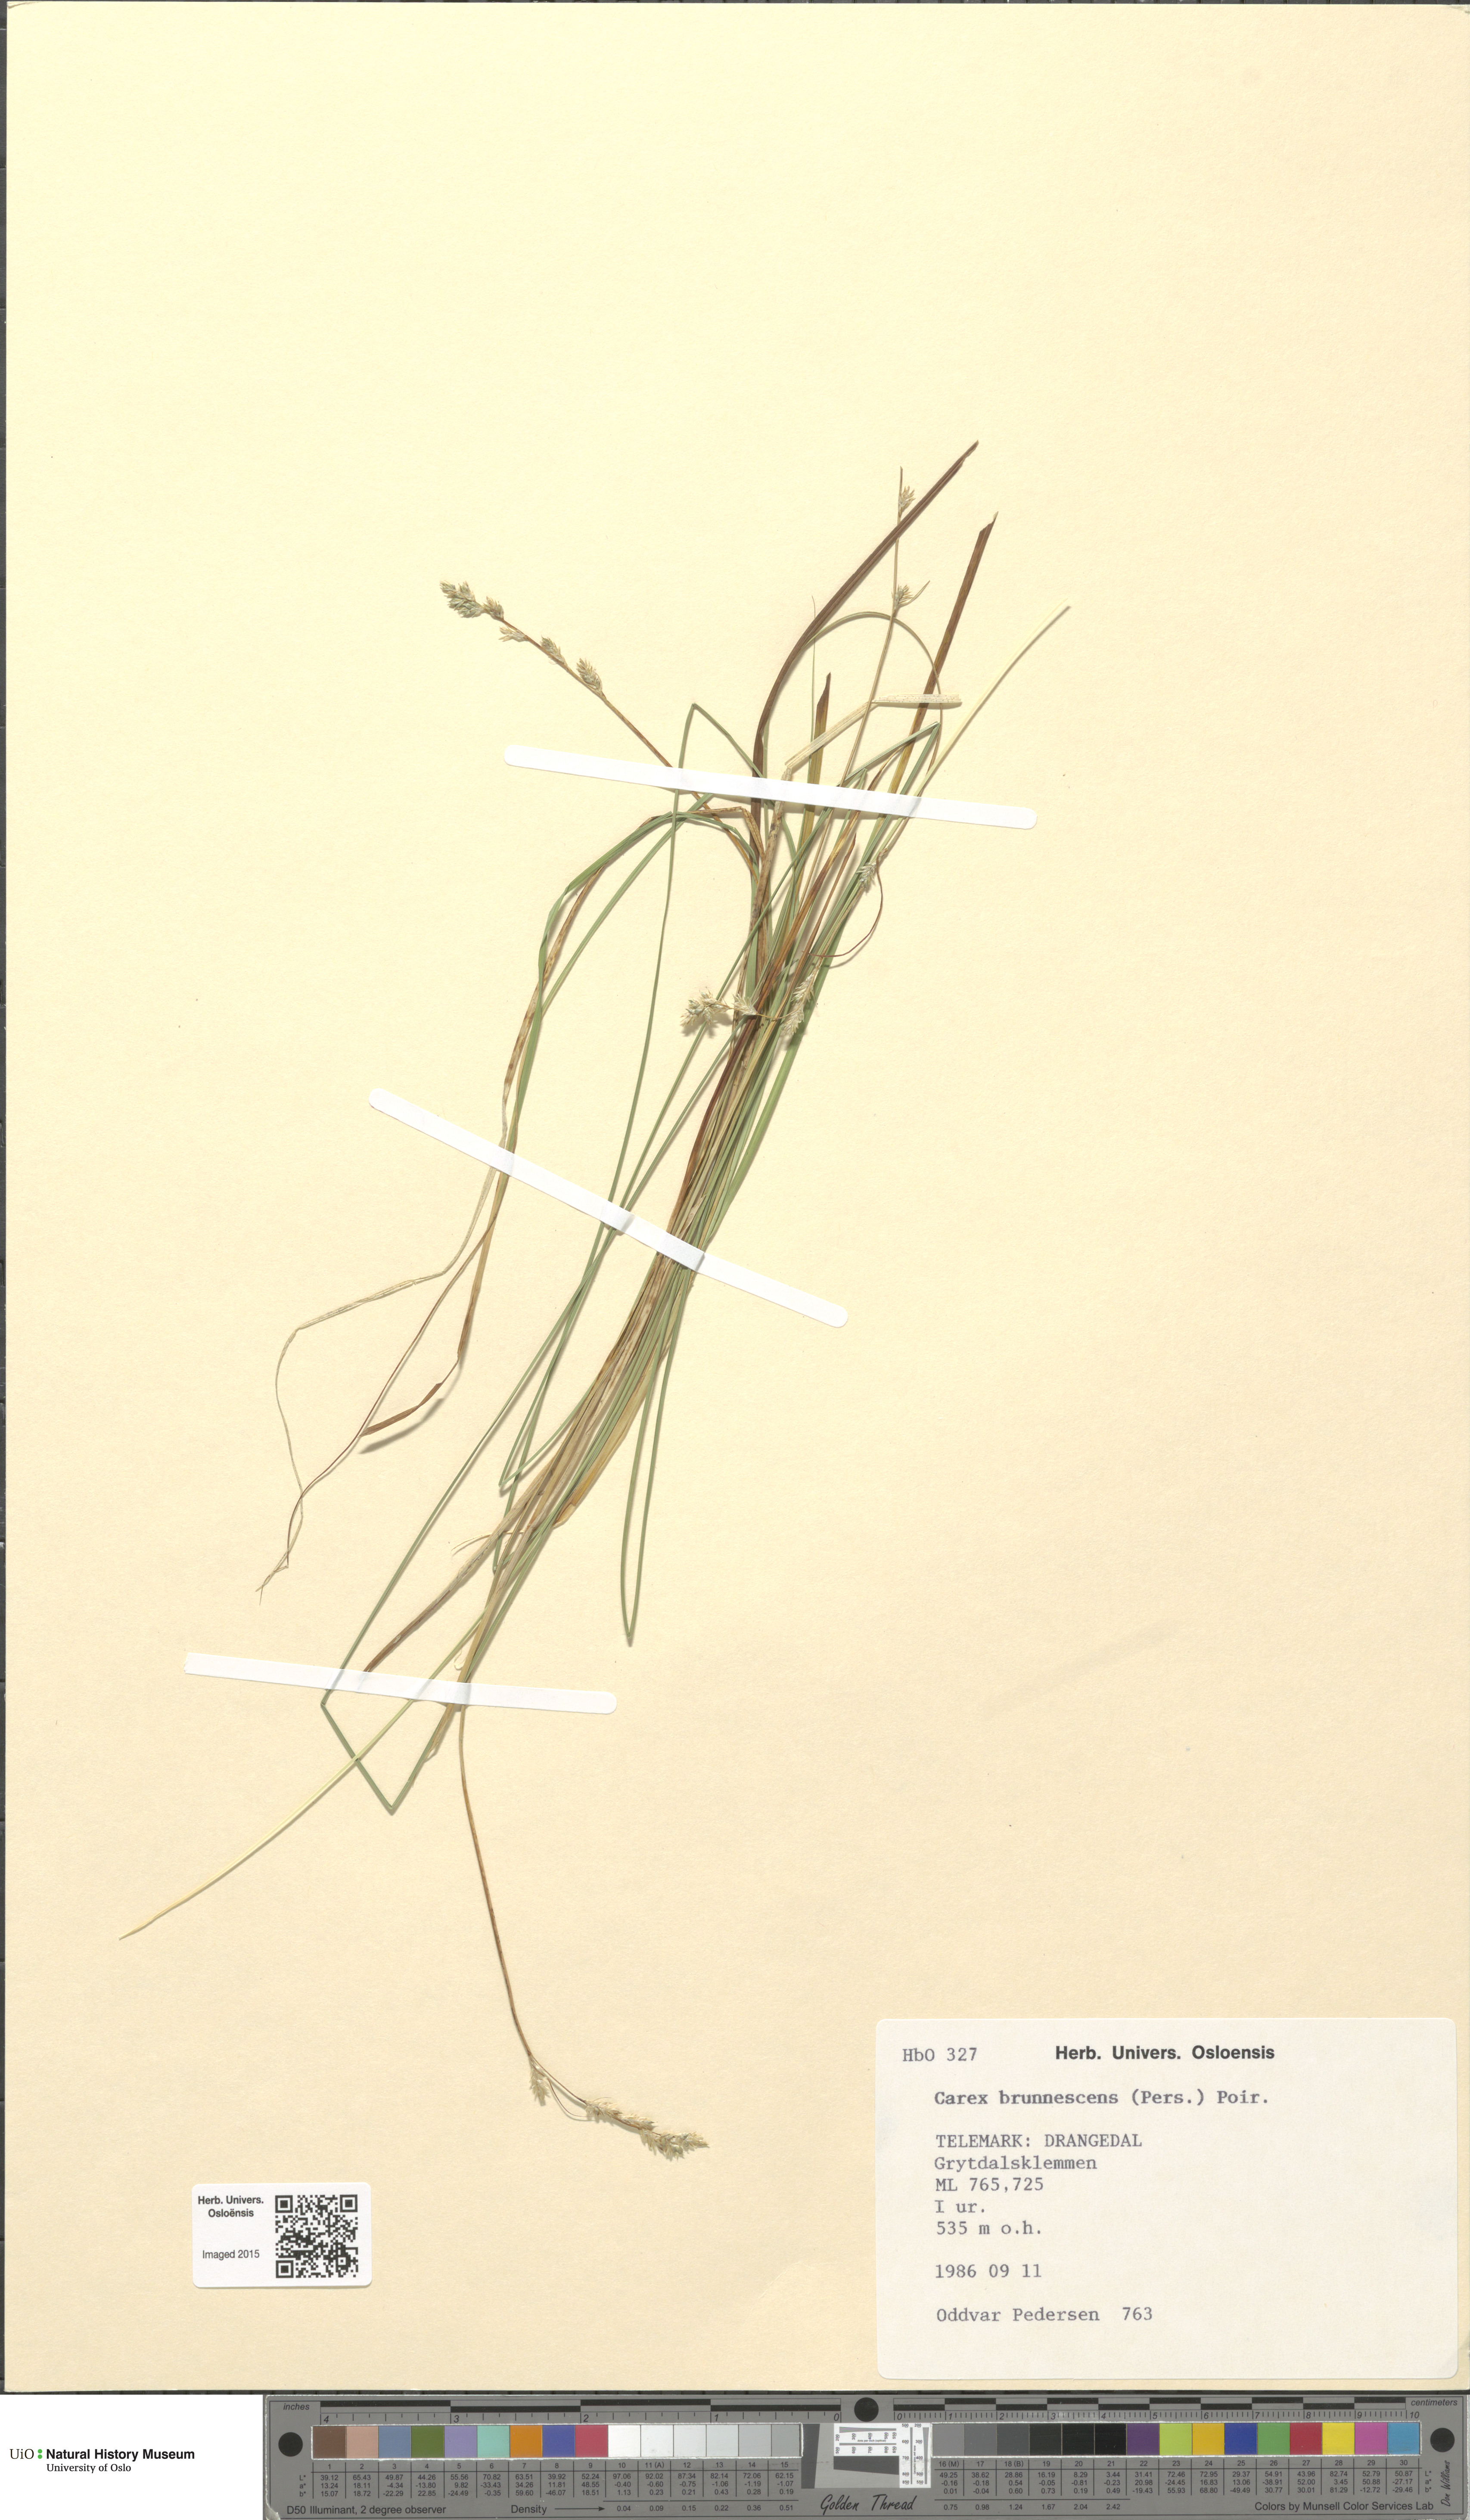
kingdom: Plantae
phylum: Tracheophyta
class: Liliopsida
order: Poales
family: Cyperaceae
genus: Carex
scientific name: Carex brunnescens
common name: Brown sedge
